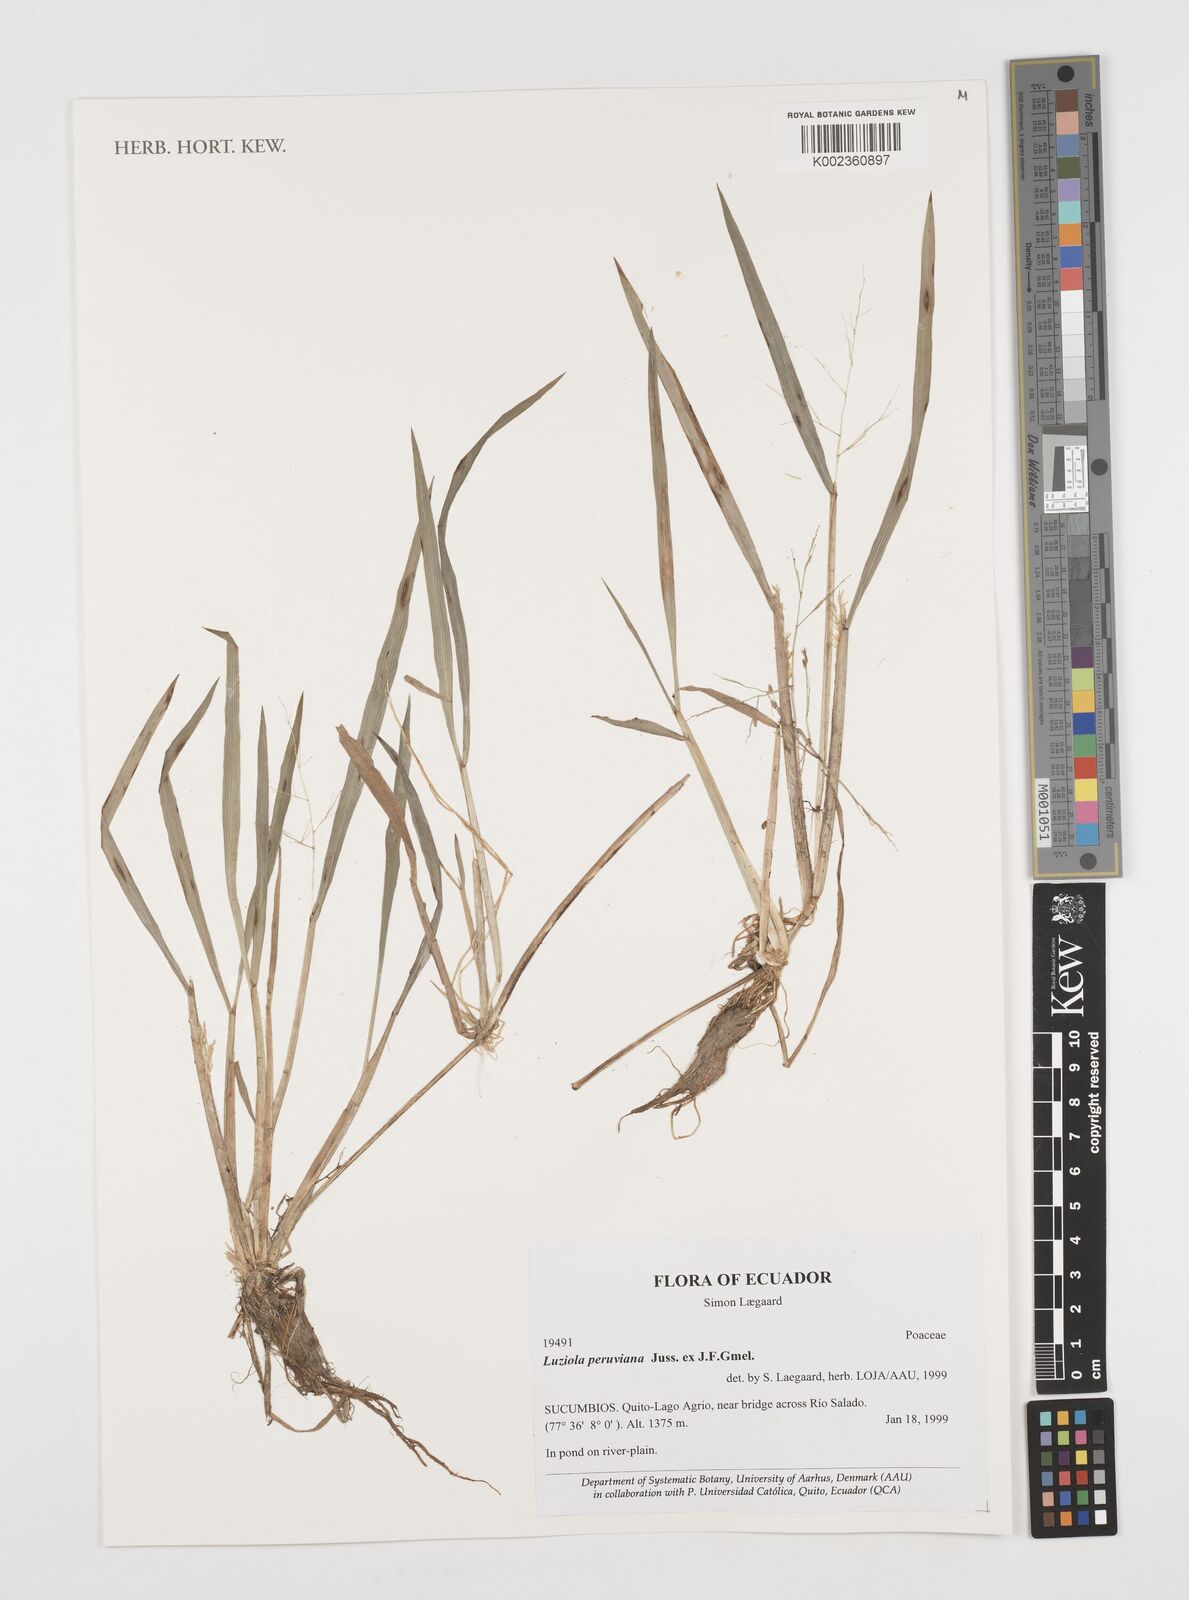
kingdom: Plantae
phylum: Tracheophyta
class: Liliopsida
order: Poales
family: Poaceae
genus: Luziola
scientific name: Luziola peruviana
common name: Peruvian watergrass
